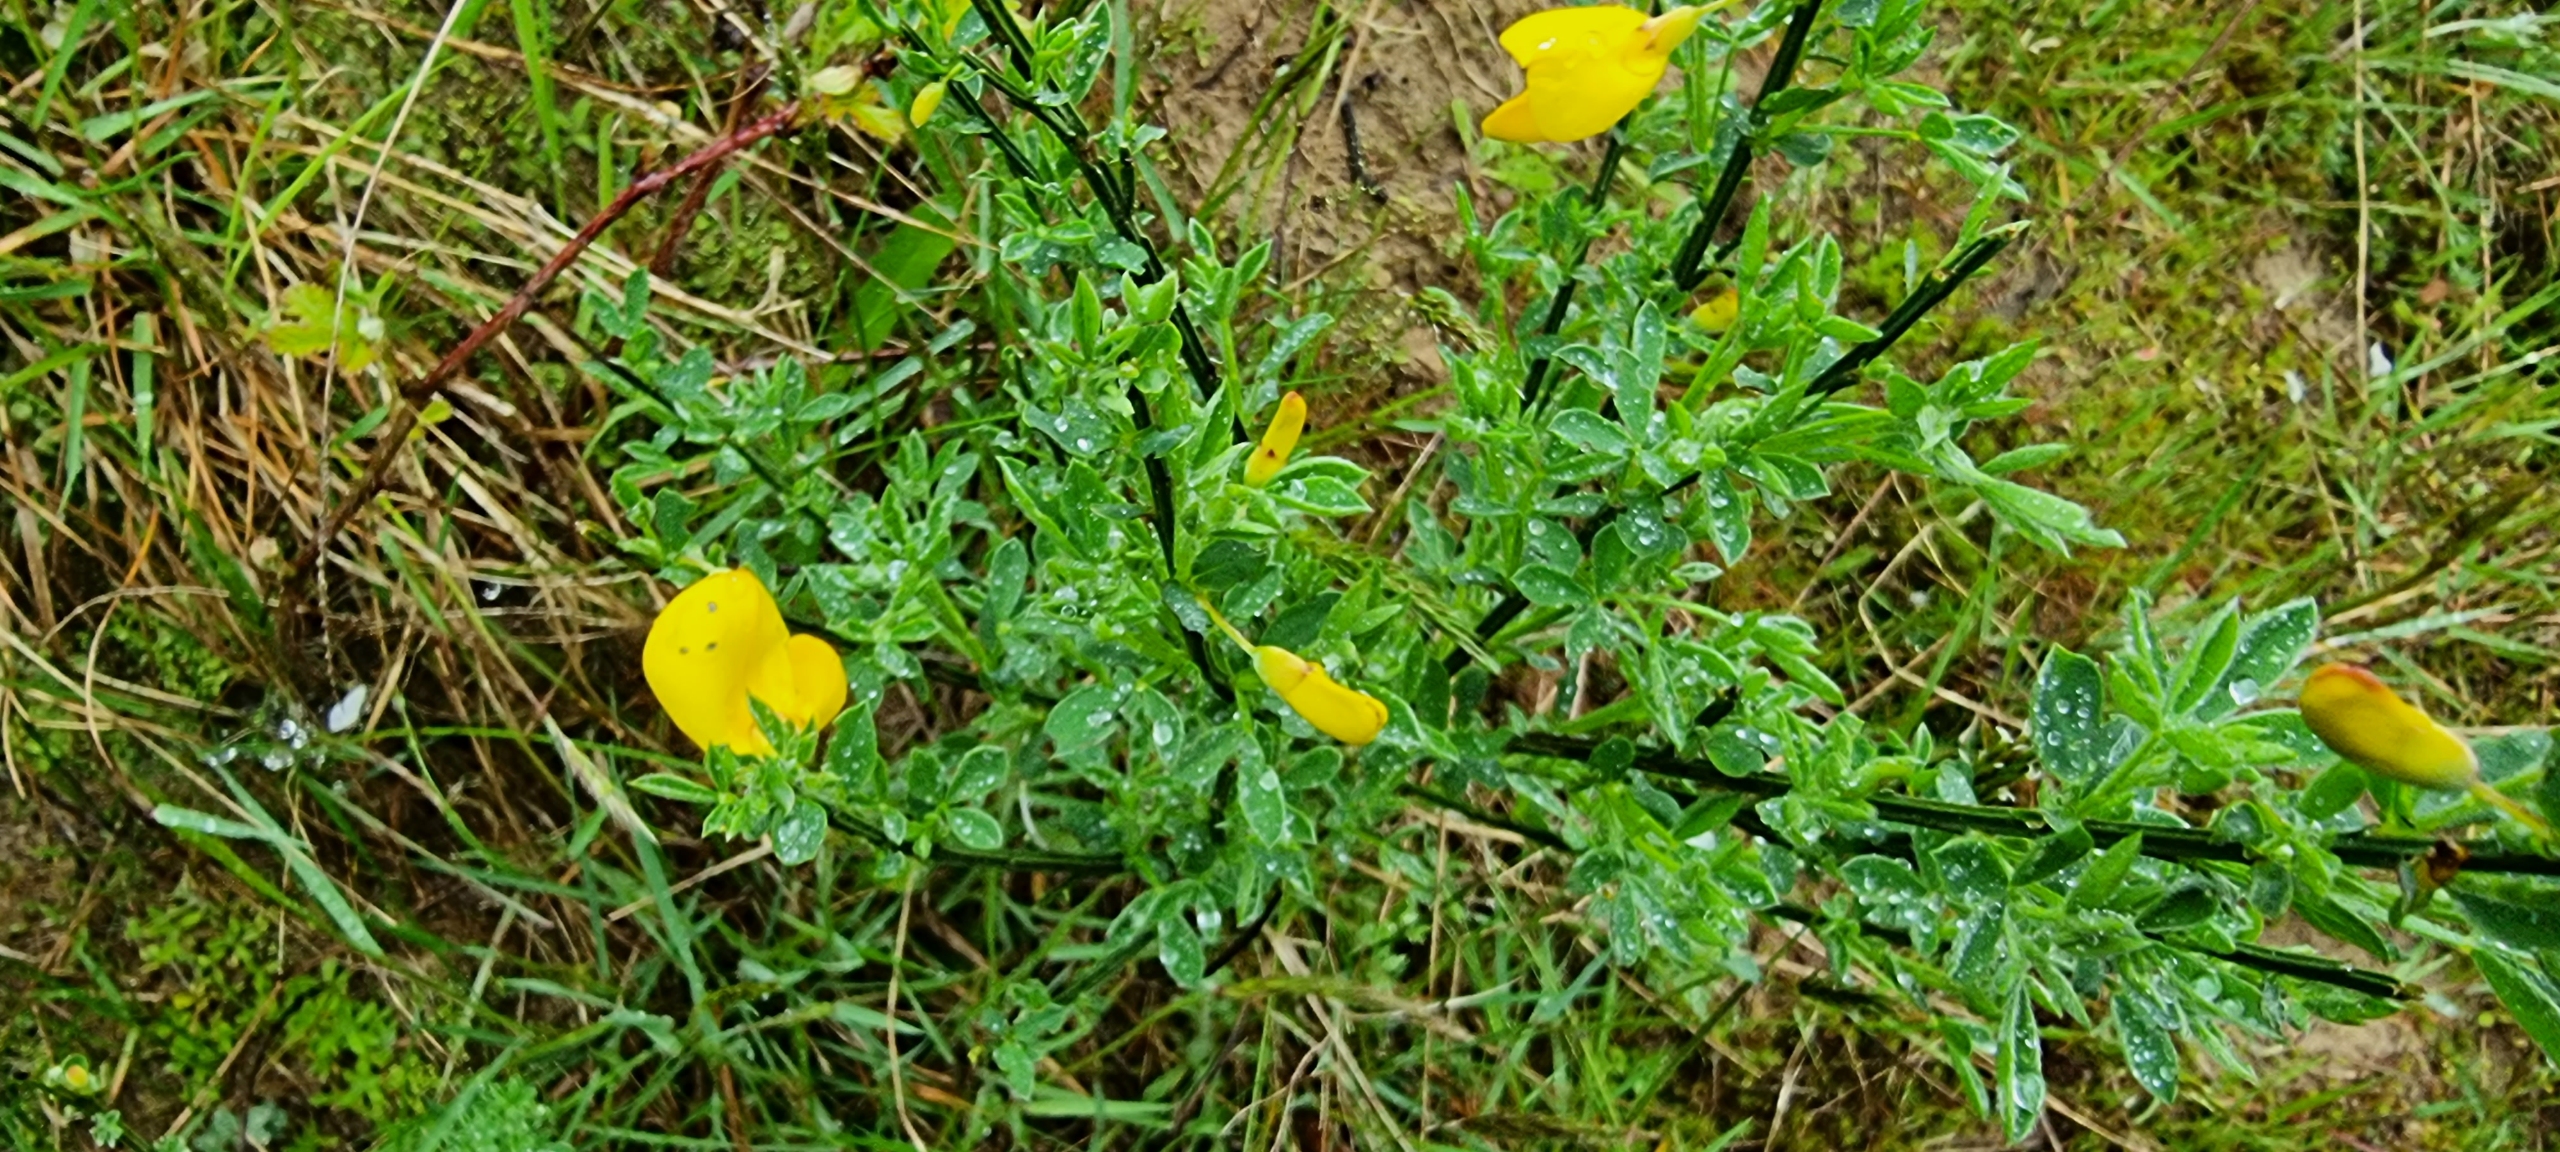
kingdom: Plantae
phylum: Tracheophyta
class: Magnoliopsida
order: Fabales
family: Fabaceae
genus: Cytisus
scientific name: Cytisus scoparius
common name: Almindelig gyvel
